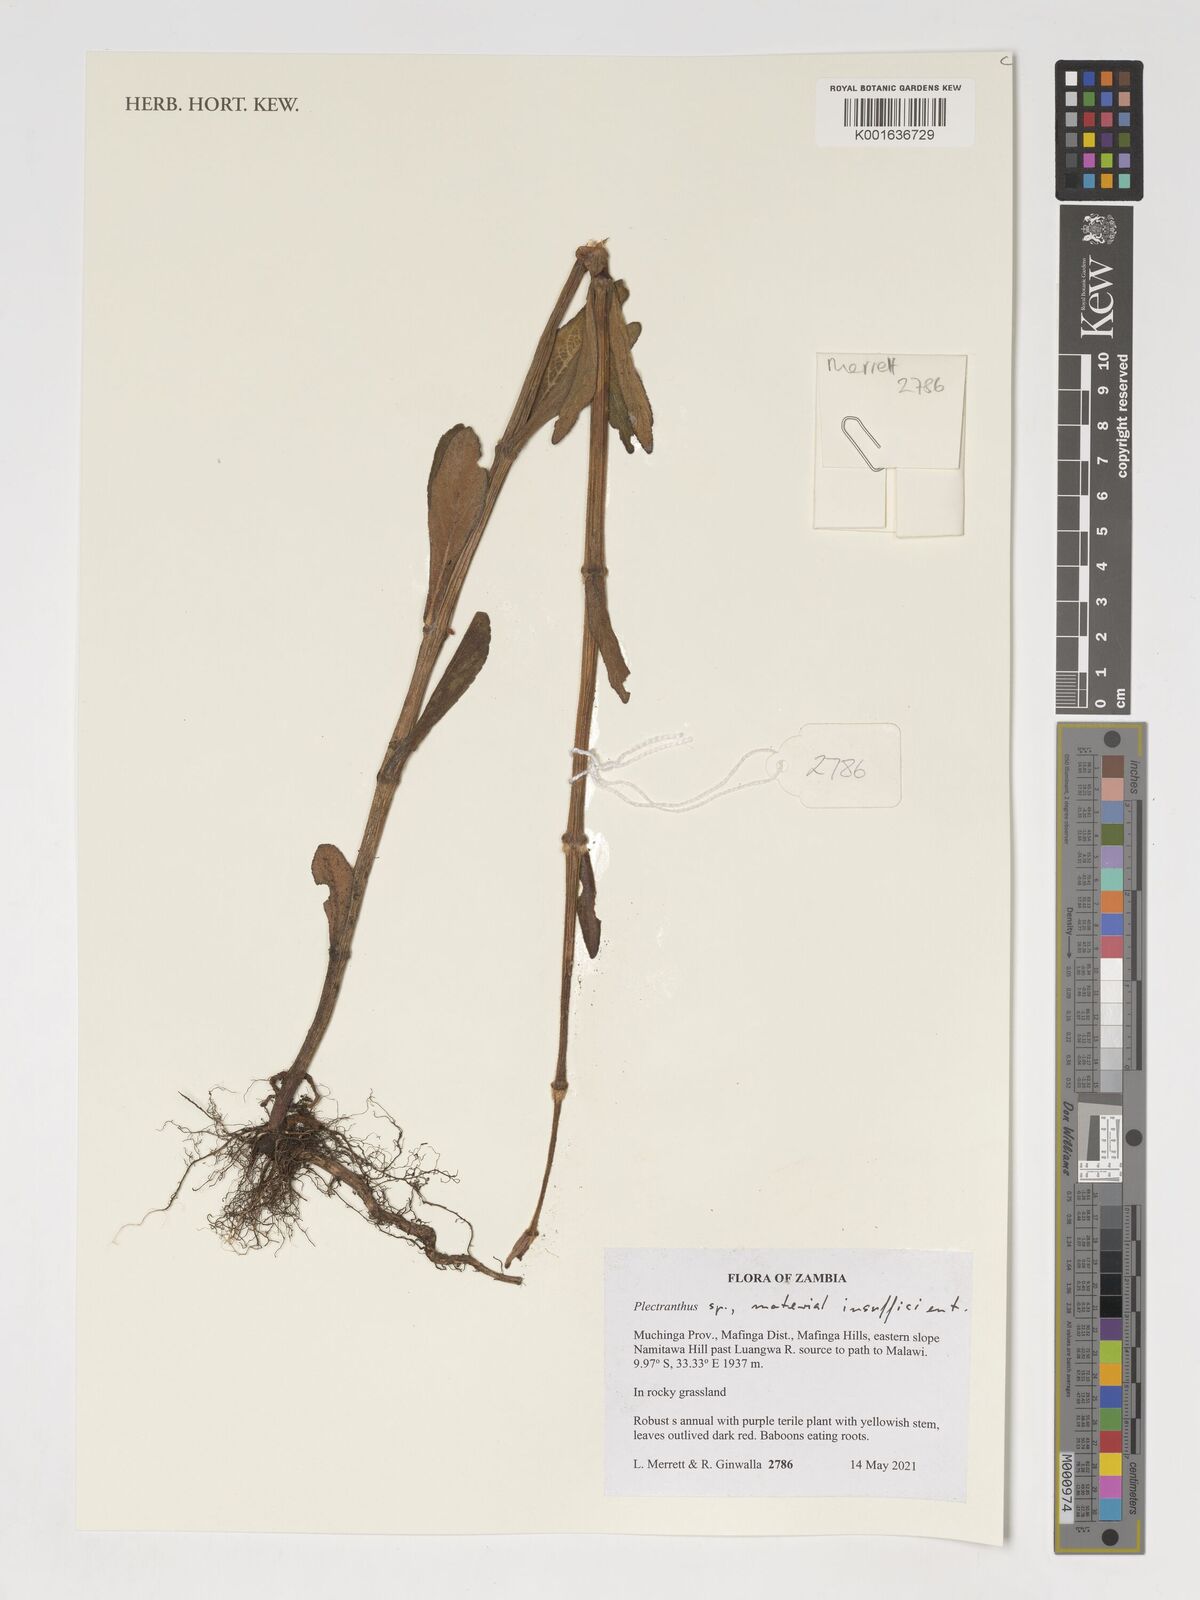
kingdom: Plantae
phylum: Tracheophyta
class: Magnoliopsida
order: Lamiales
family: Lamiaceae
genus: Plectranthus
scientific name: Plectranthus
